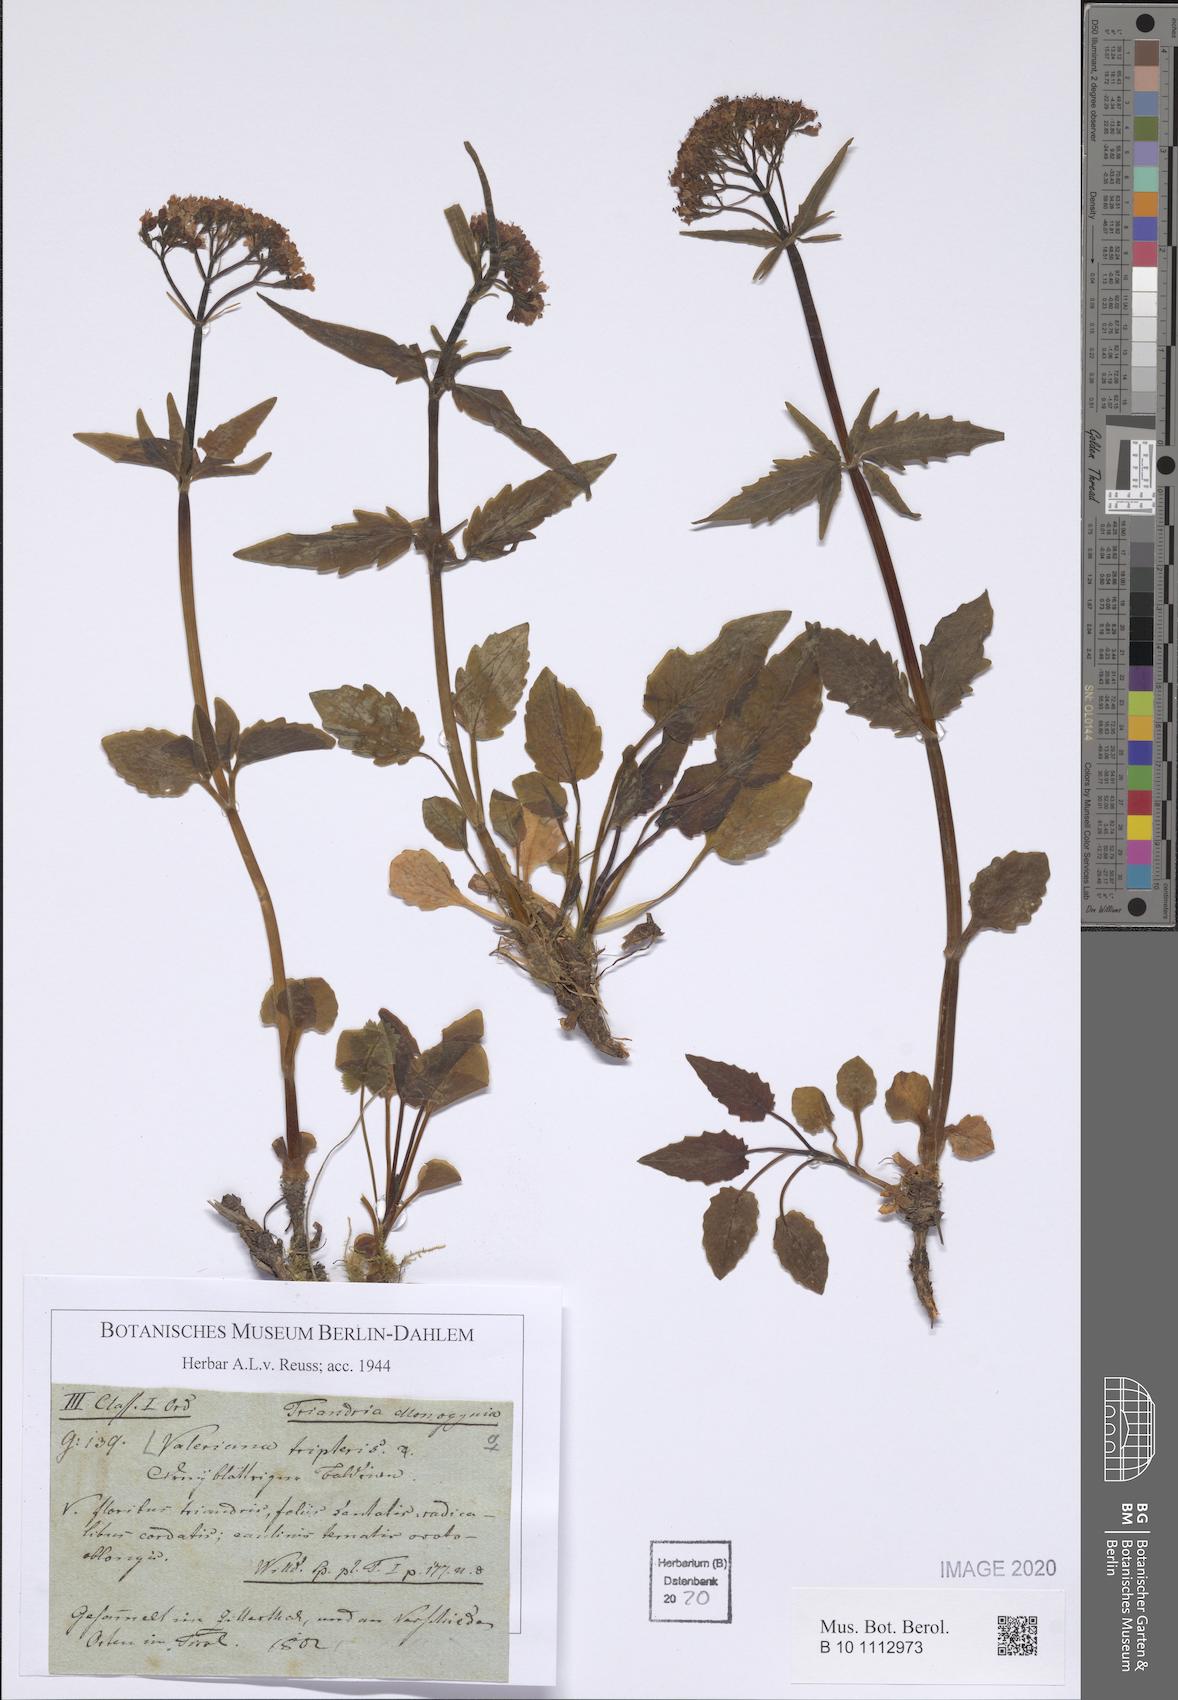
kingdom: Plantae
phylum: Tracheophyta
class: Magnoliopsida
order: Dipsacales
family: Caprifoliaceae
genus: Valeriana
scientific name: Valeriana tripteris
